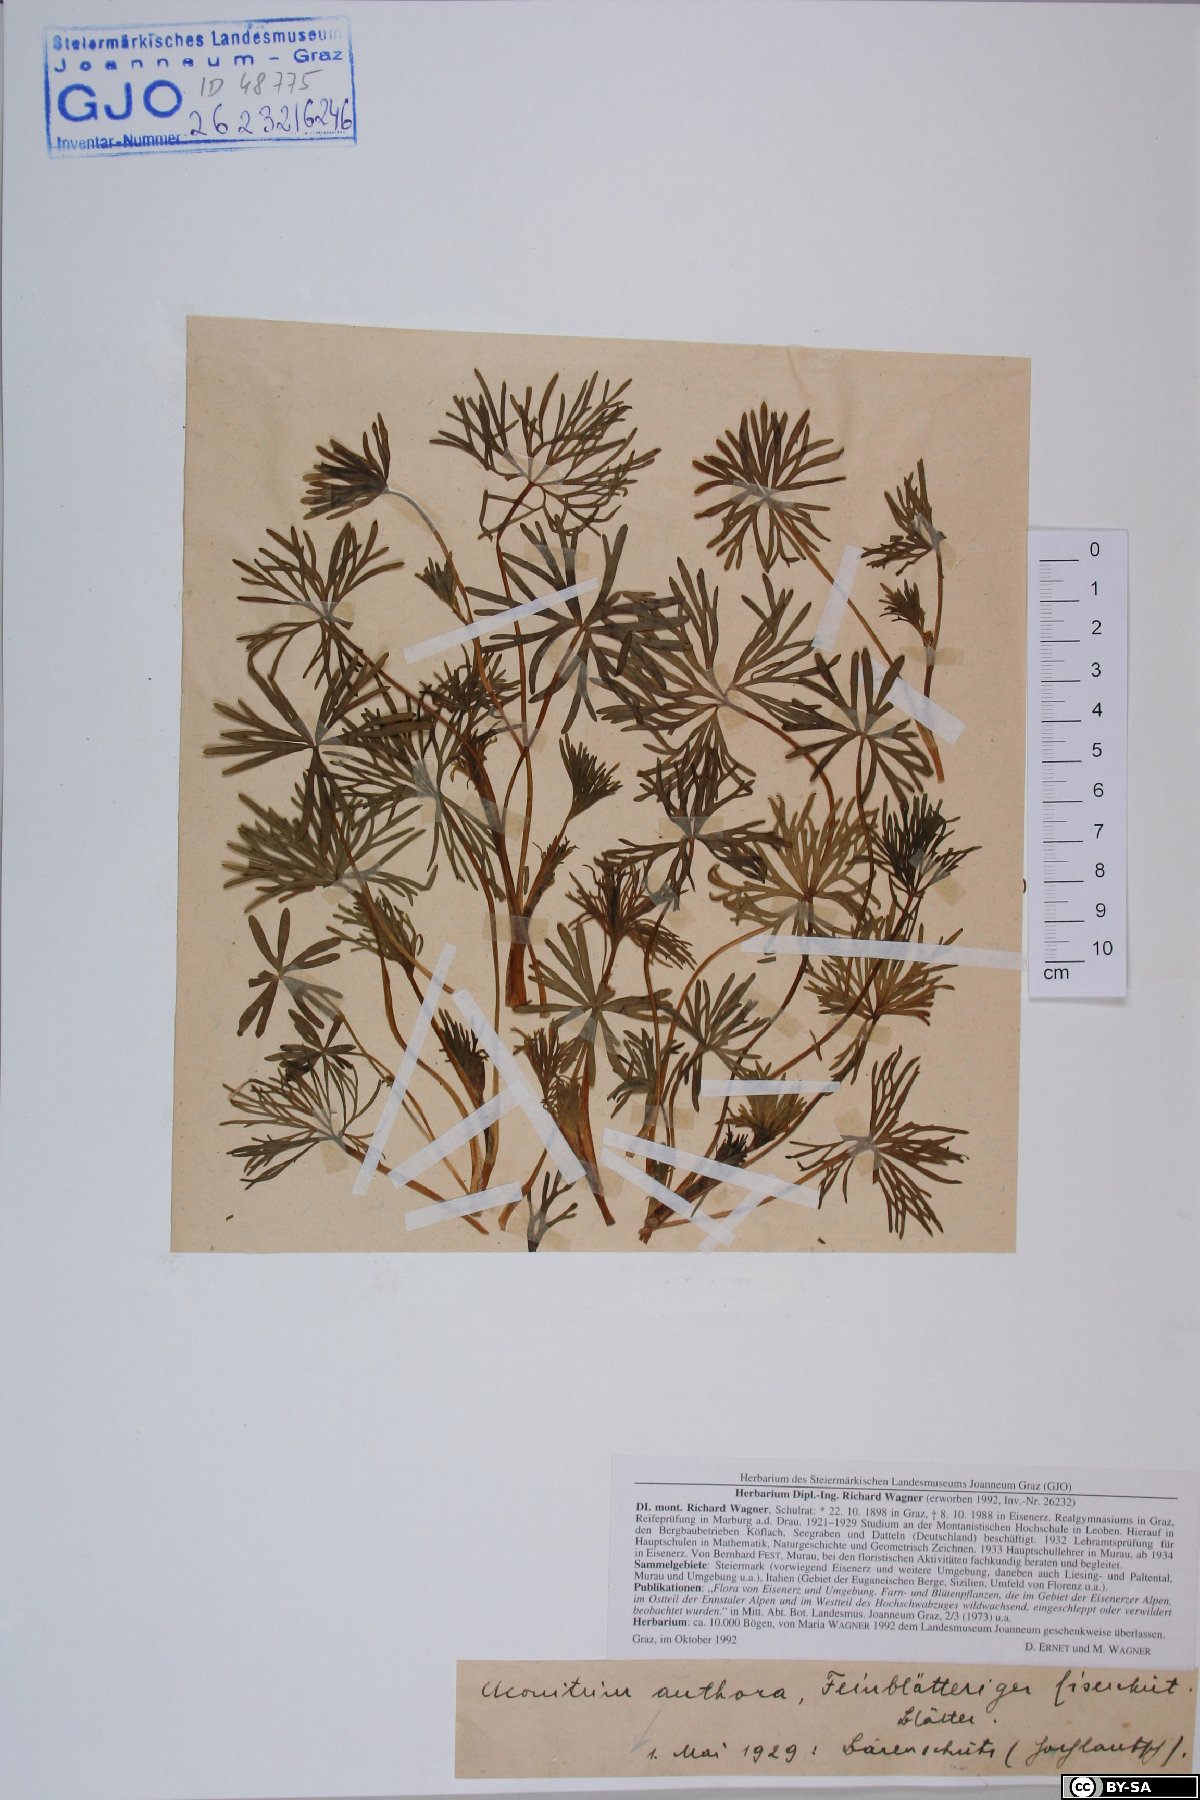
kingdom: Plantae
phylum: Tracheophyta
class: Magnoliopsida
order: Ranunculales
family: Ranunculaceae
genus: Aconitum
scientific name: Aconitum anthora
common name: Yellow monkshood
